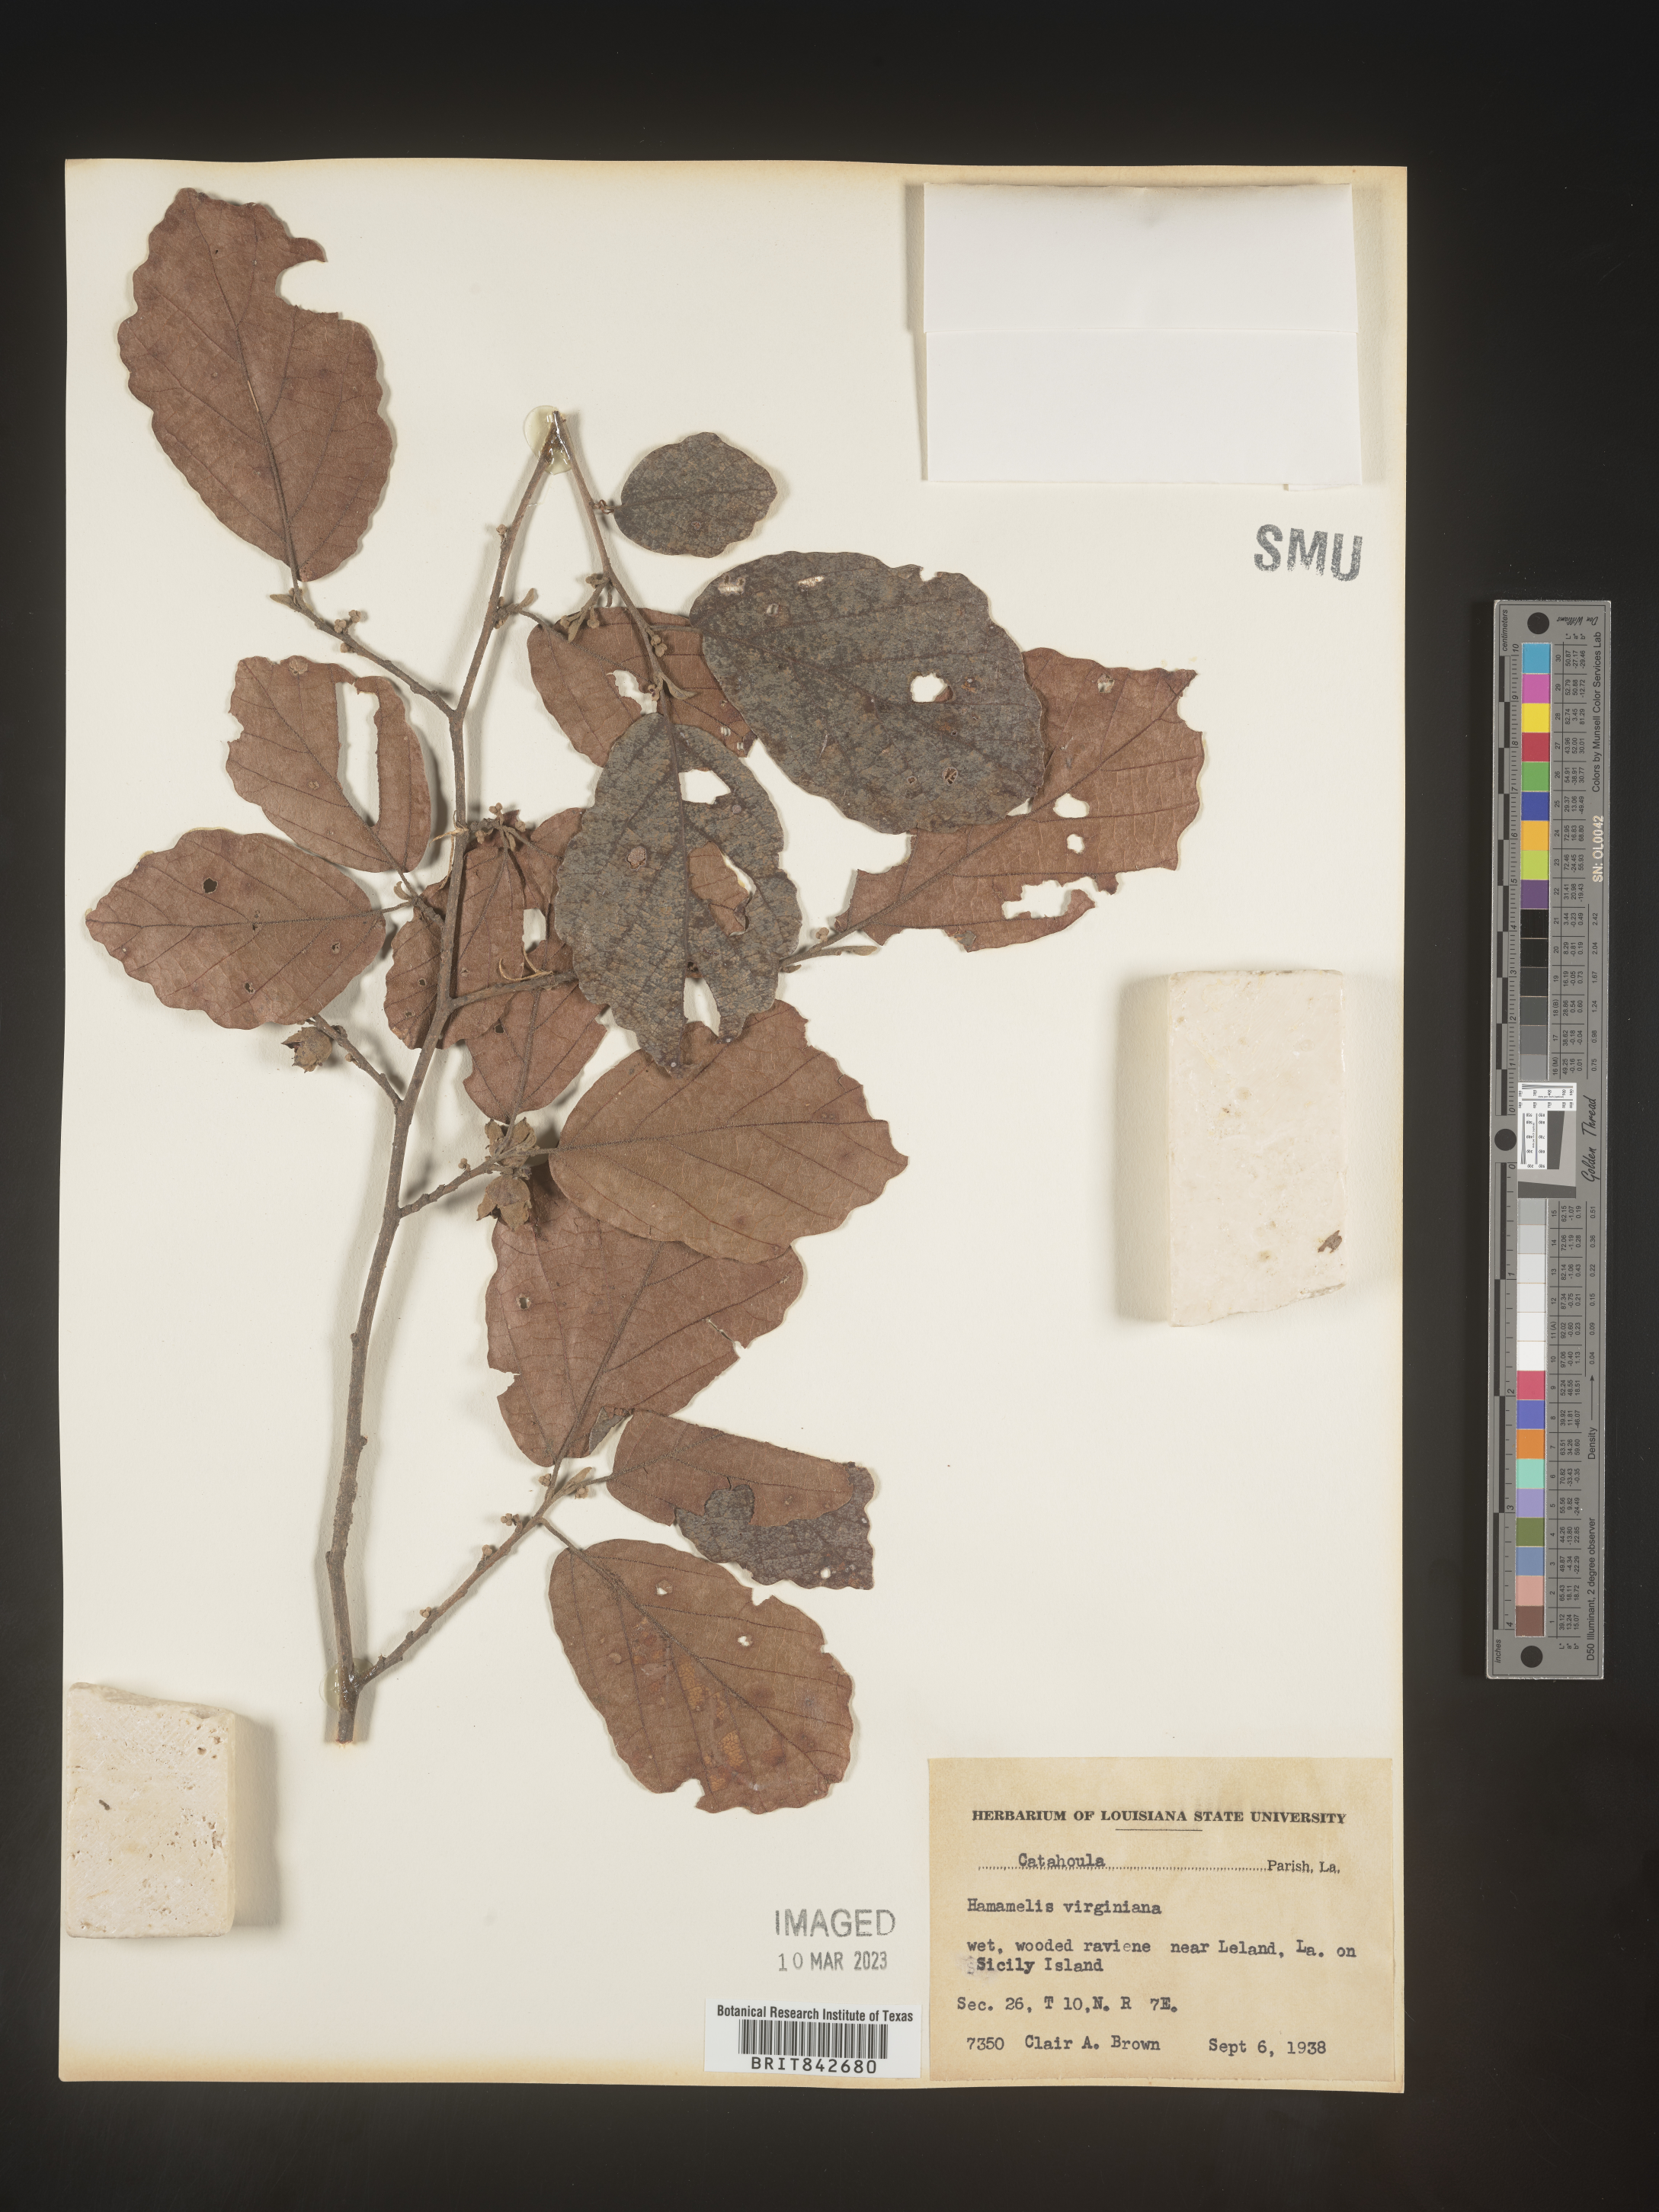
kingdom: Plantae
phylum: Tracheophyta
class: Magnoliopsida
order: Saxifragales
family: Hamamelidaceae
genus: Hamamelis
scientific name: Hamamelis virginiana
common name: Witch-hazel
